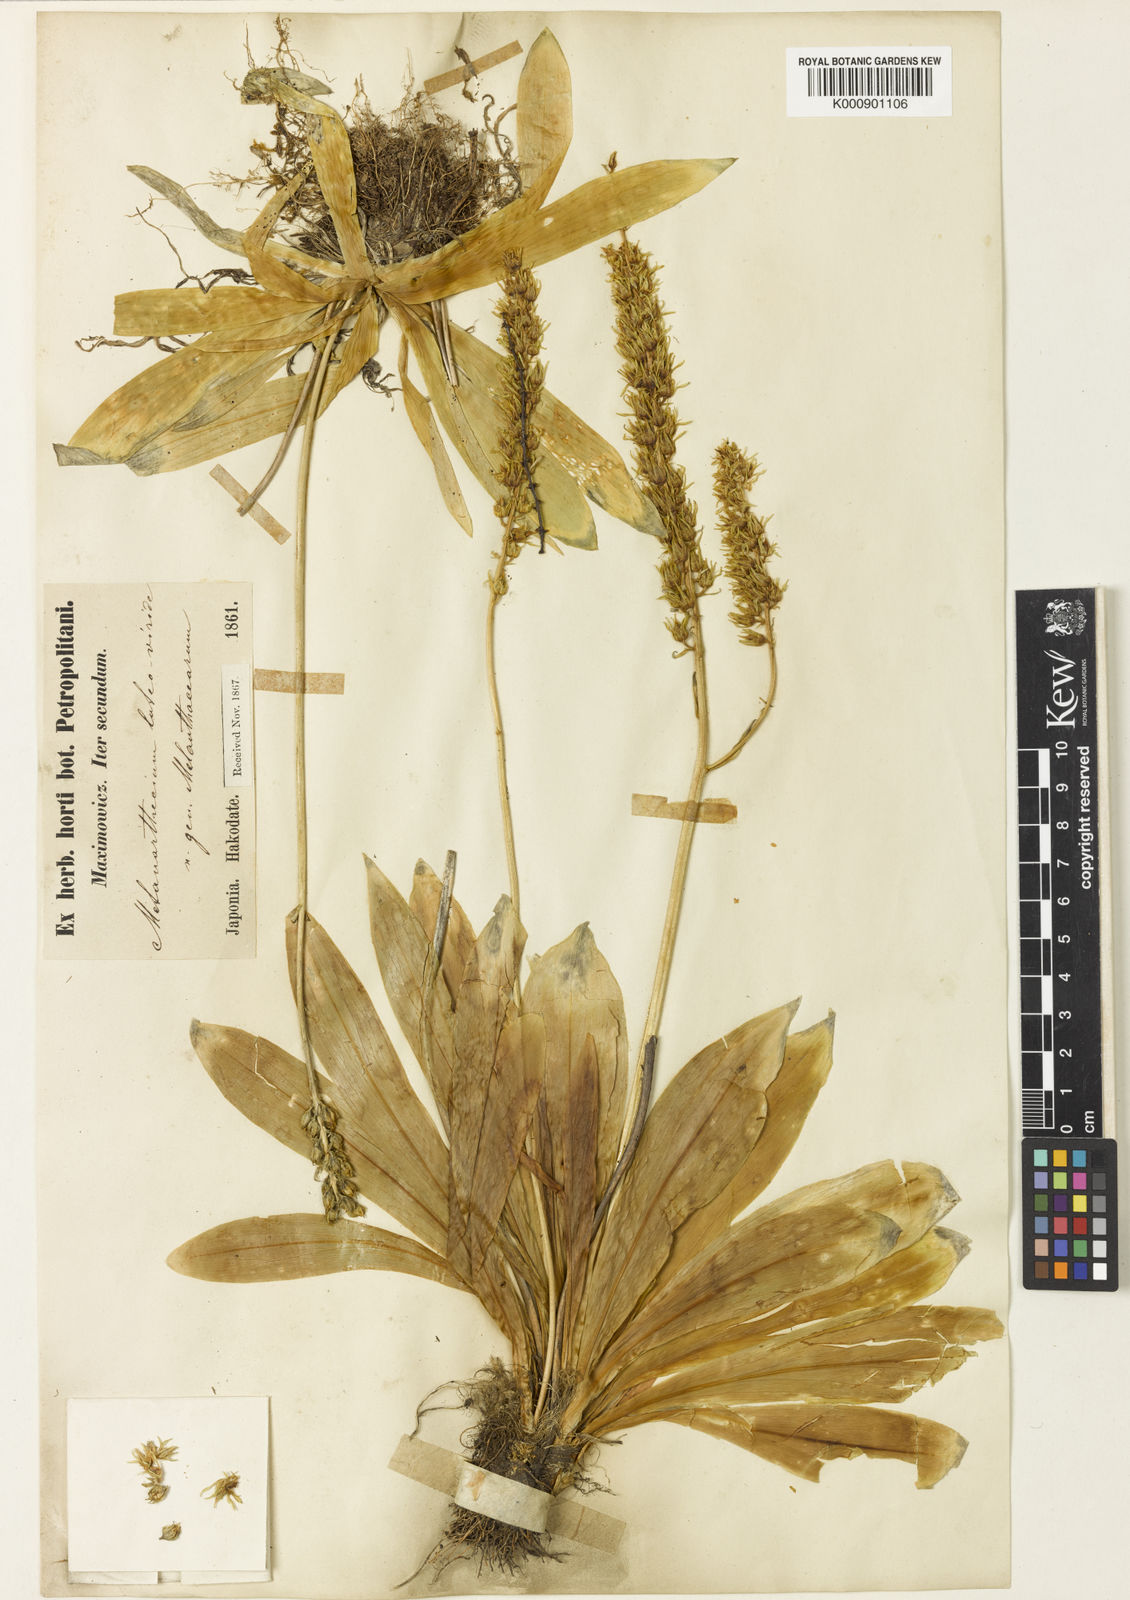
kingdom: Plantae
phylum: Tracheophyta
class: Liliopsida
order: Dioscoreales
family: Nartheciaceae
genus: Metanarthecium
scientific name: Metanarthecium luteoviride
